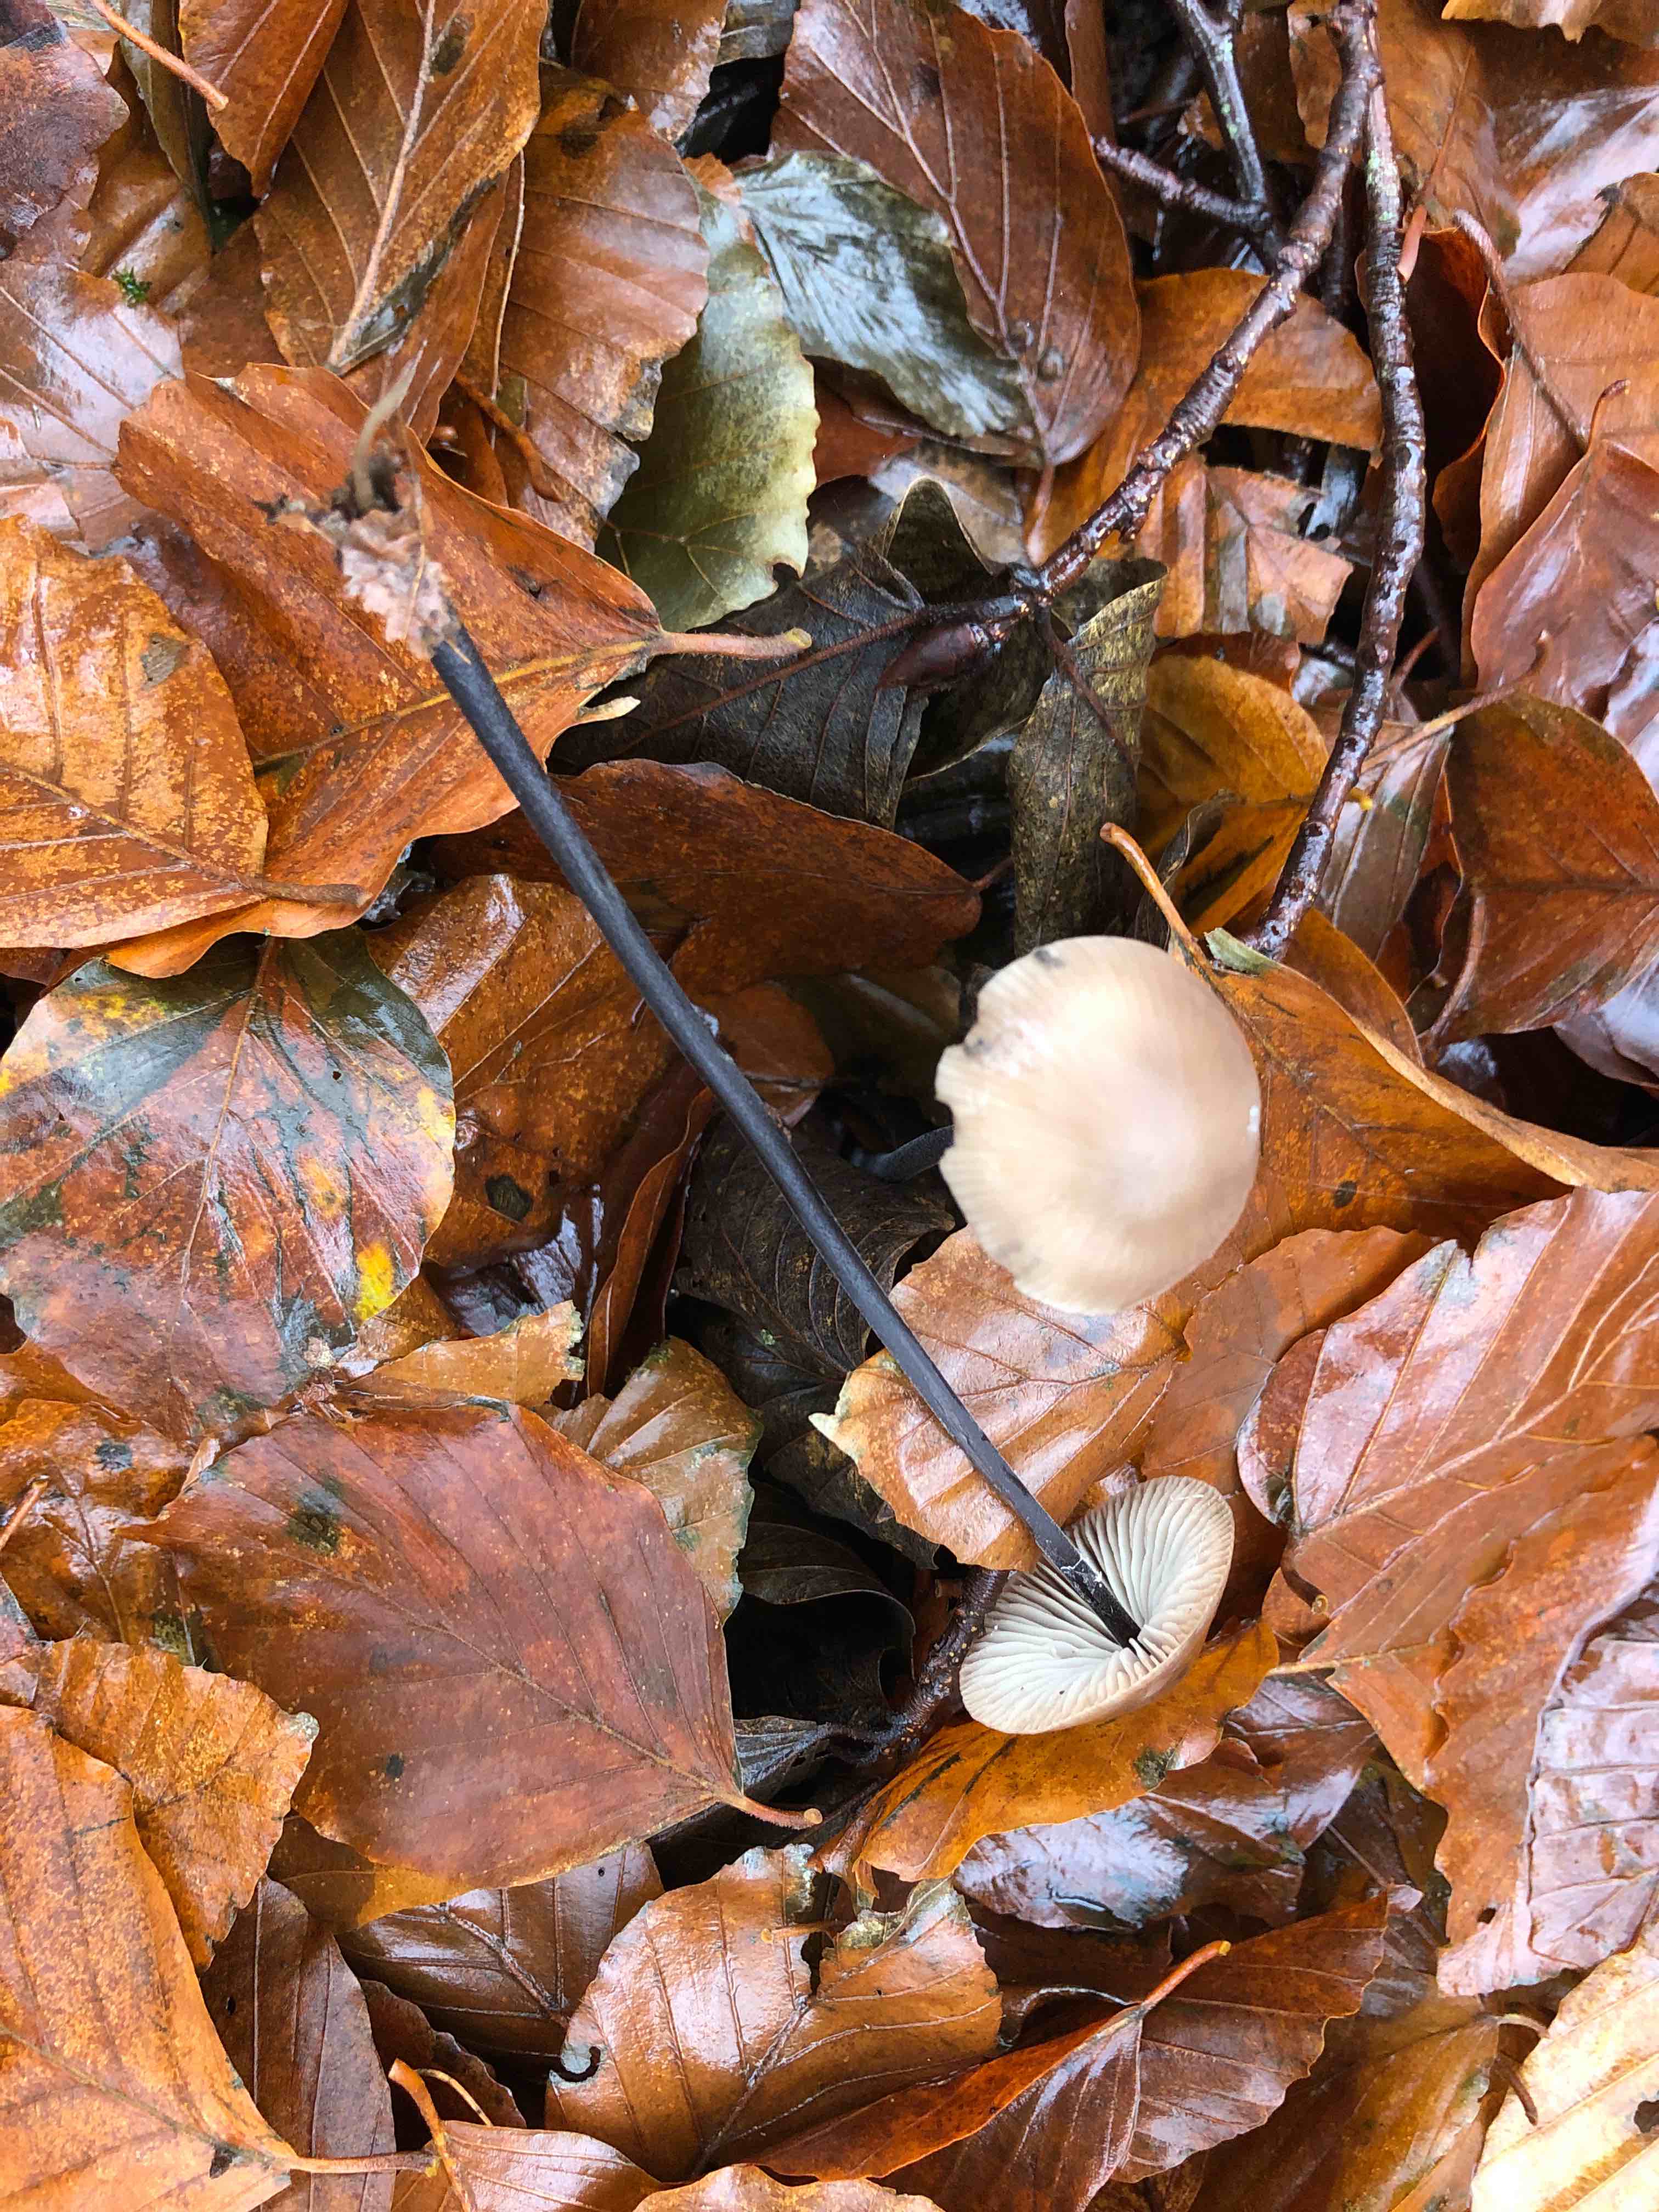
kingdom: Fungi
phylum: Basidiomycota
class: Agaricomycetes
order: Agaricales
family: Omphalotaceae
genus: Mycetinis
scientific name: Mycetinis alliaceus
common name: stor løghat
